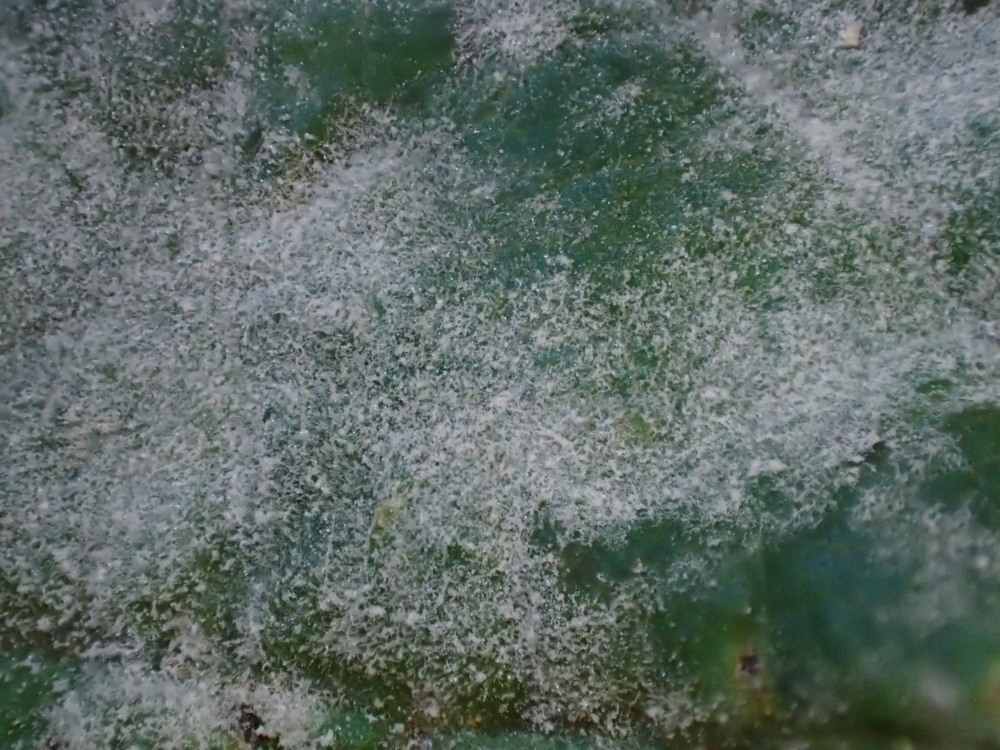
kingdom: Fungi
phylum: Ascomycota
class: Leotiomycetes
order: Helotiales
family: Erysiphaceae
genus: Sawadaea
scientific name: Sawadaea bicornis
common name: Maple mildew
